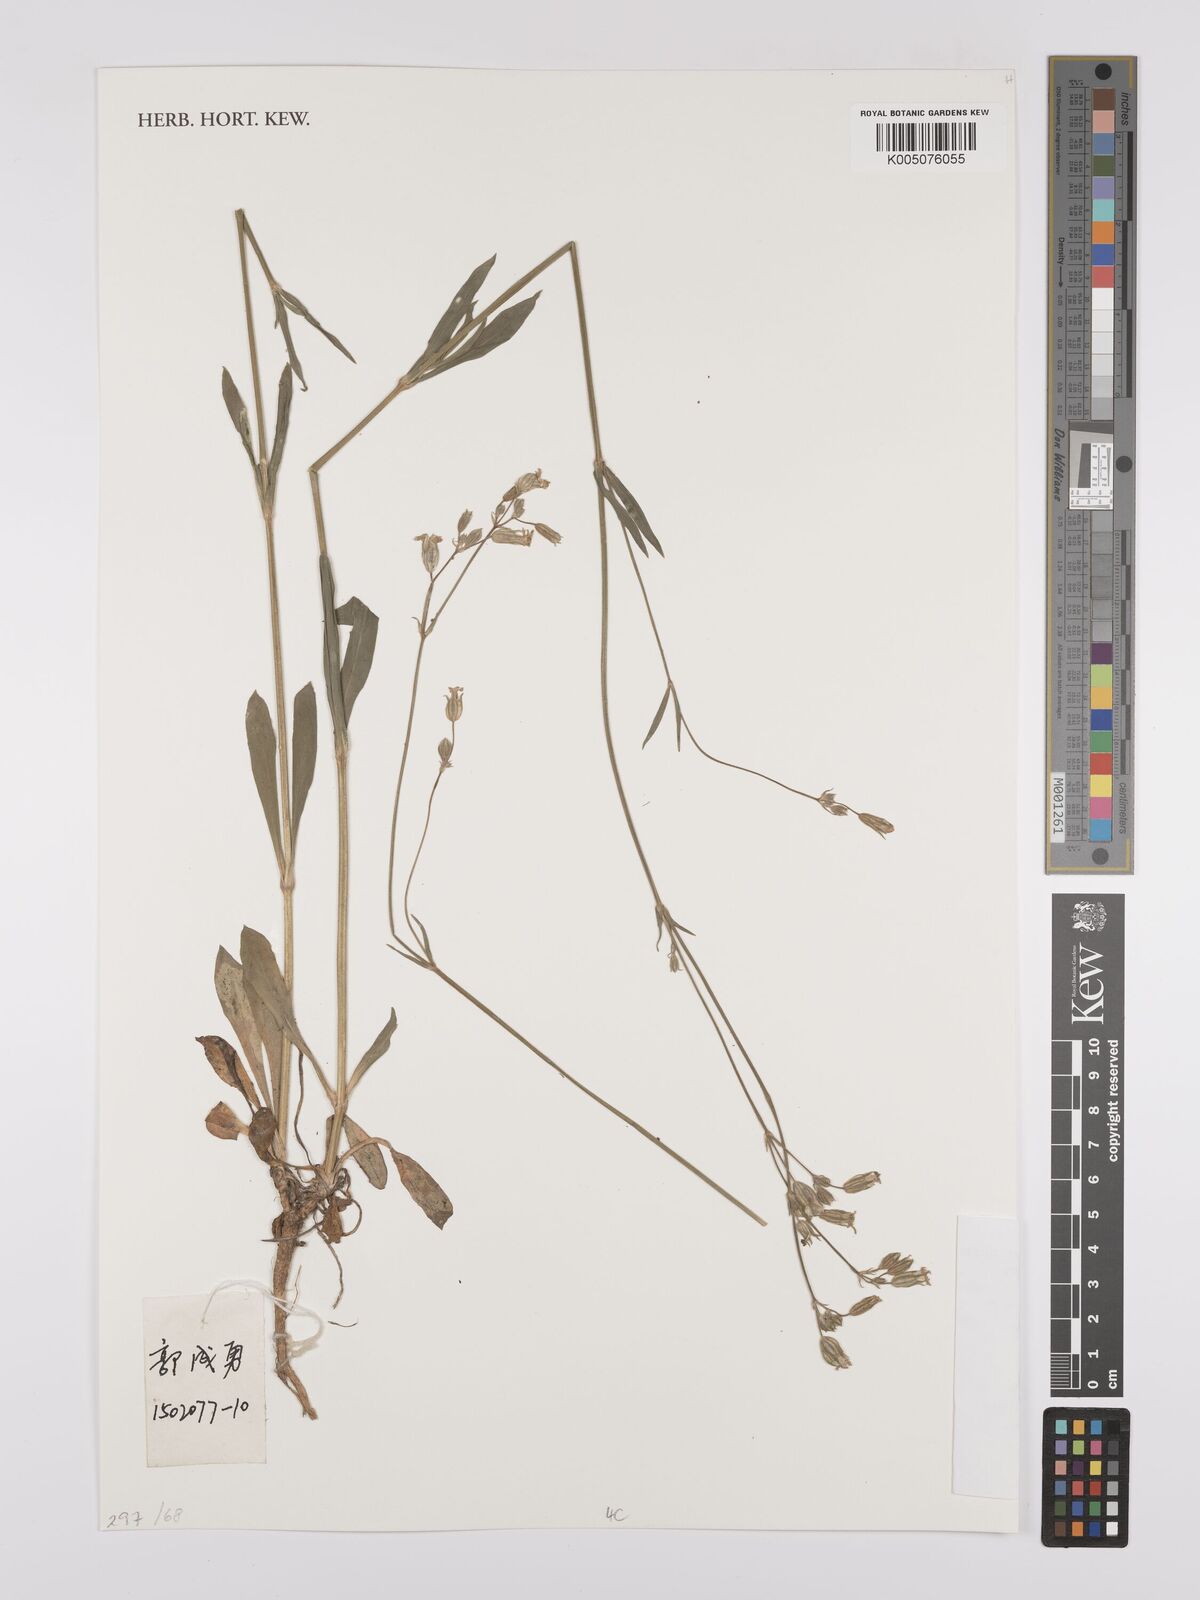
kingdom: Plantae
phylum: Tracheophyta
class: Magnoliopsida
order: Caryophyllales
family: Caryophyllaceae
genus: Silene
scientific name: Silene aprica
